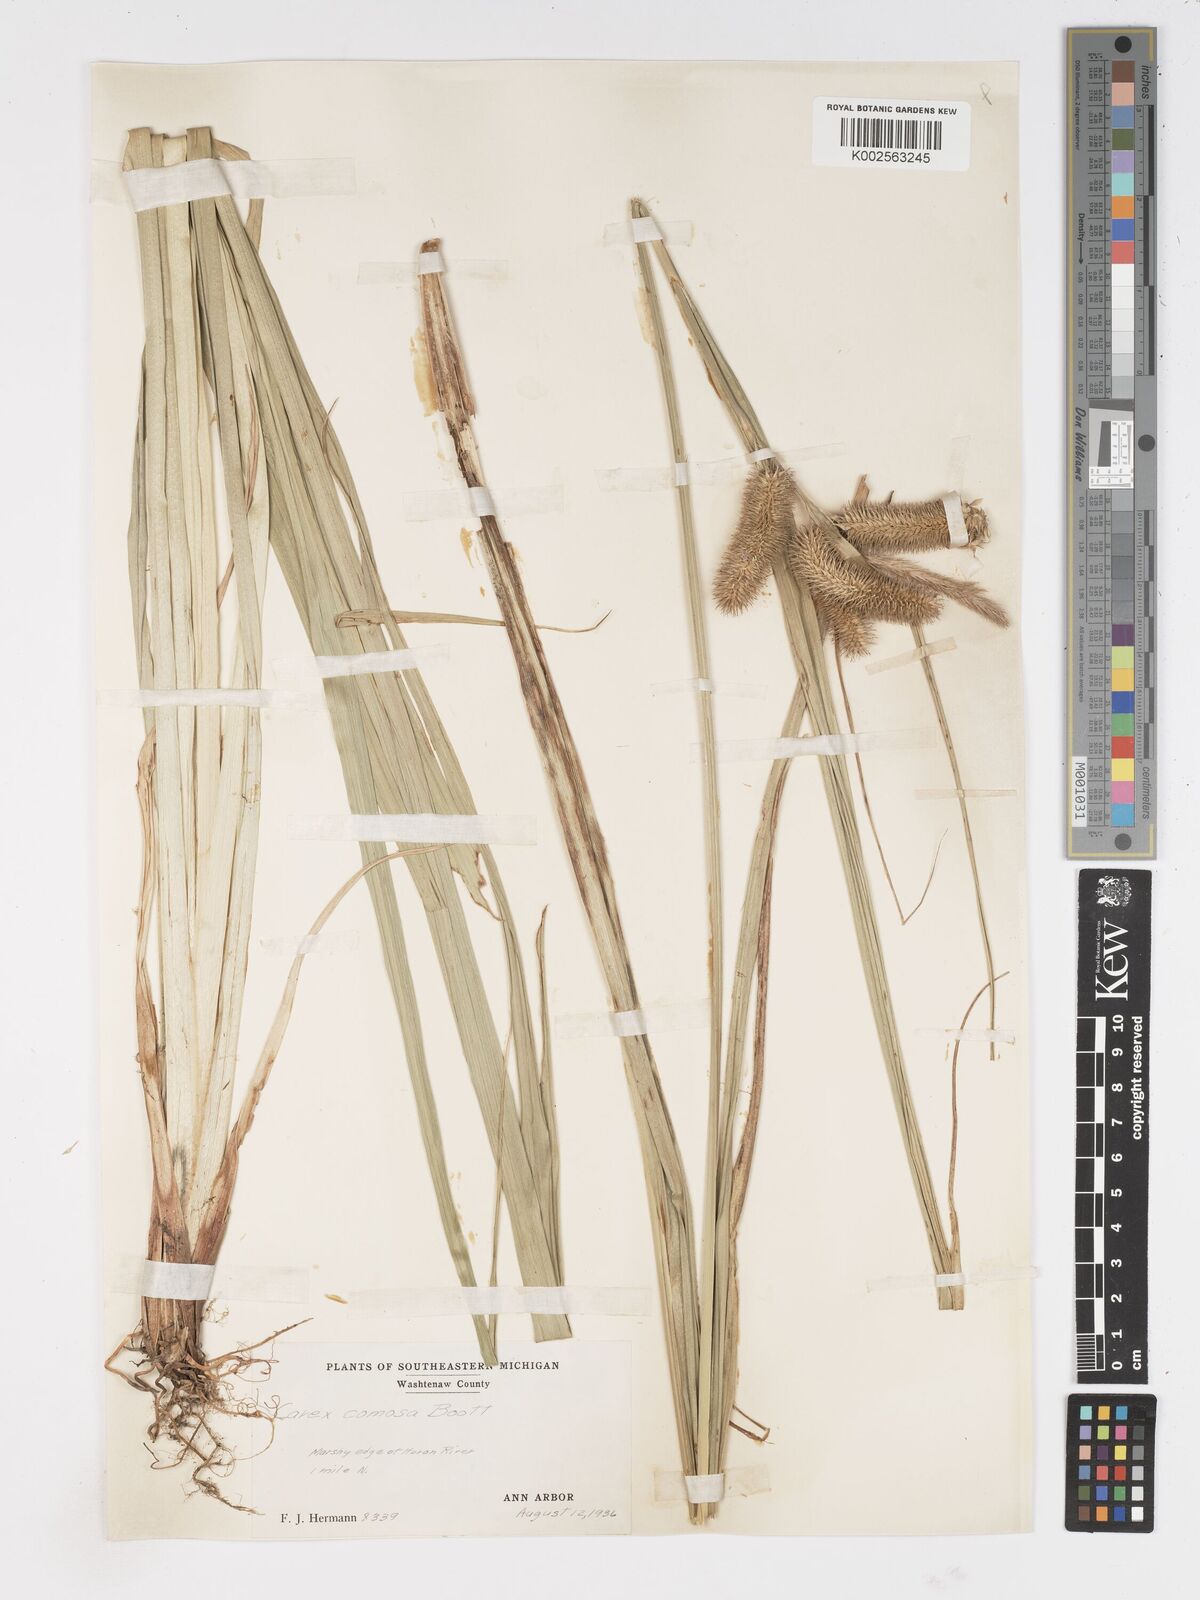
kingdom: Plantae
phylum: Tracheophyta
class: Liliopsida
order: Poales
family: Cyperaceae
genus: Carex
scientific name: Carex comosa
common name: Bristly sedge
